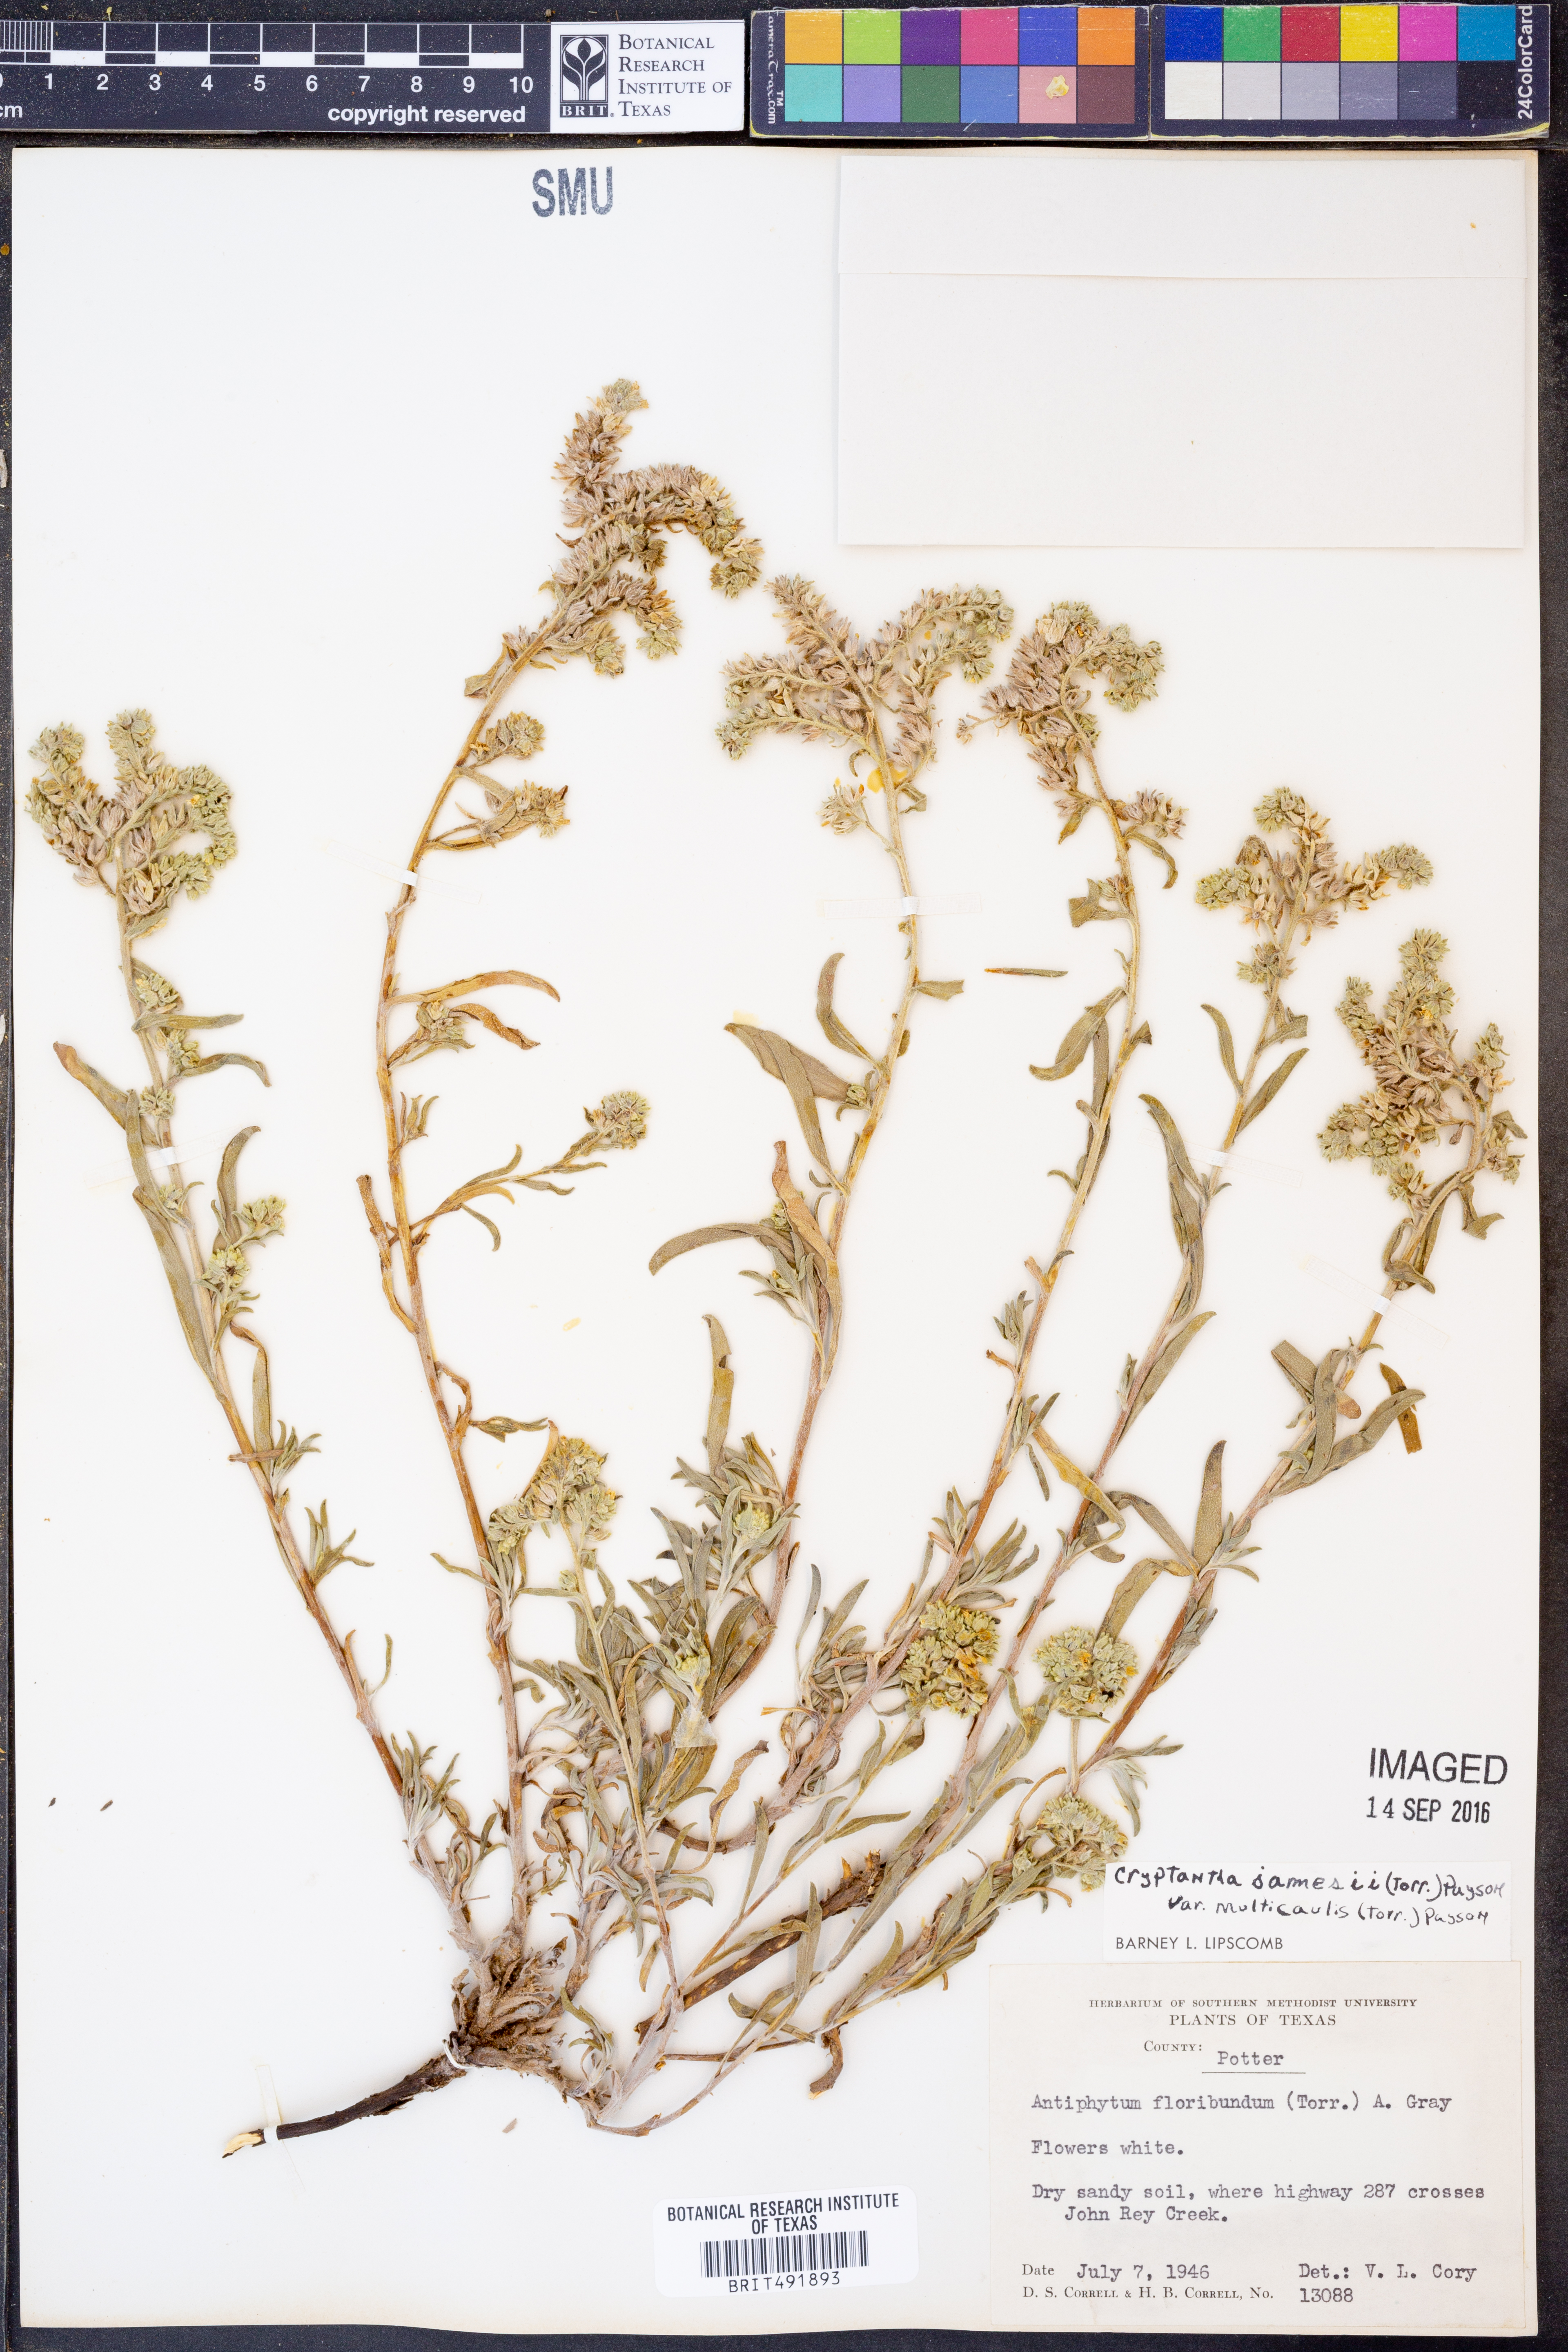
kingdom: Plantae
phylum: Tracheophyta
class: Magnoliopsida
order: Boraginales
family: Boraginaceae
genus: Oreocarya
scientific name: Oreocarya suffruticosa
